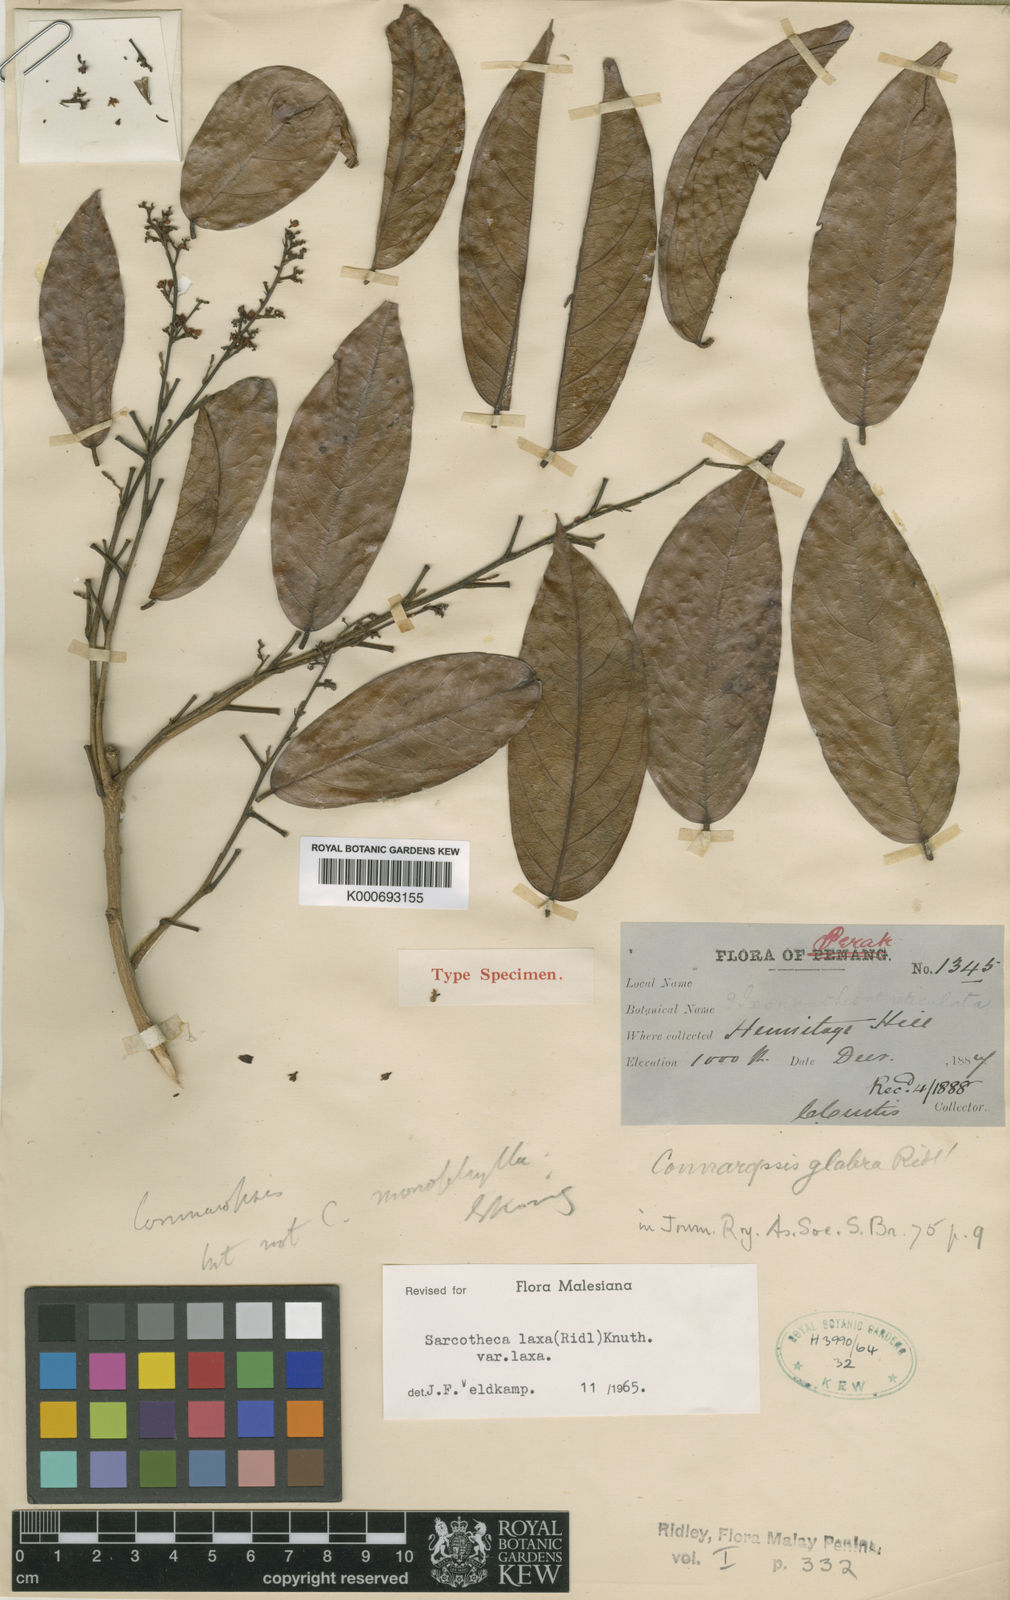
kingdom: Plantae
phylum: Tracheophyta
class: Magnoliopsida
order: Oxalidales
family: Oxalidaceae
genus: Sarcotheca
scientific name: Sarcotheca laxa
